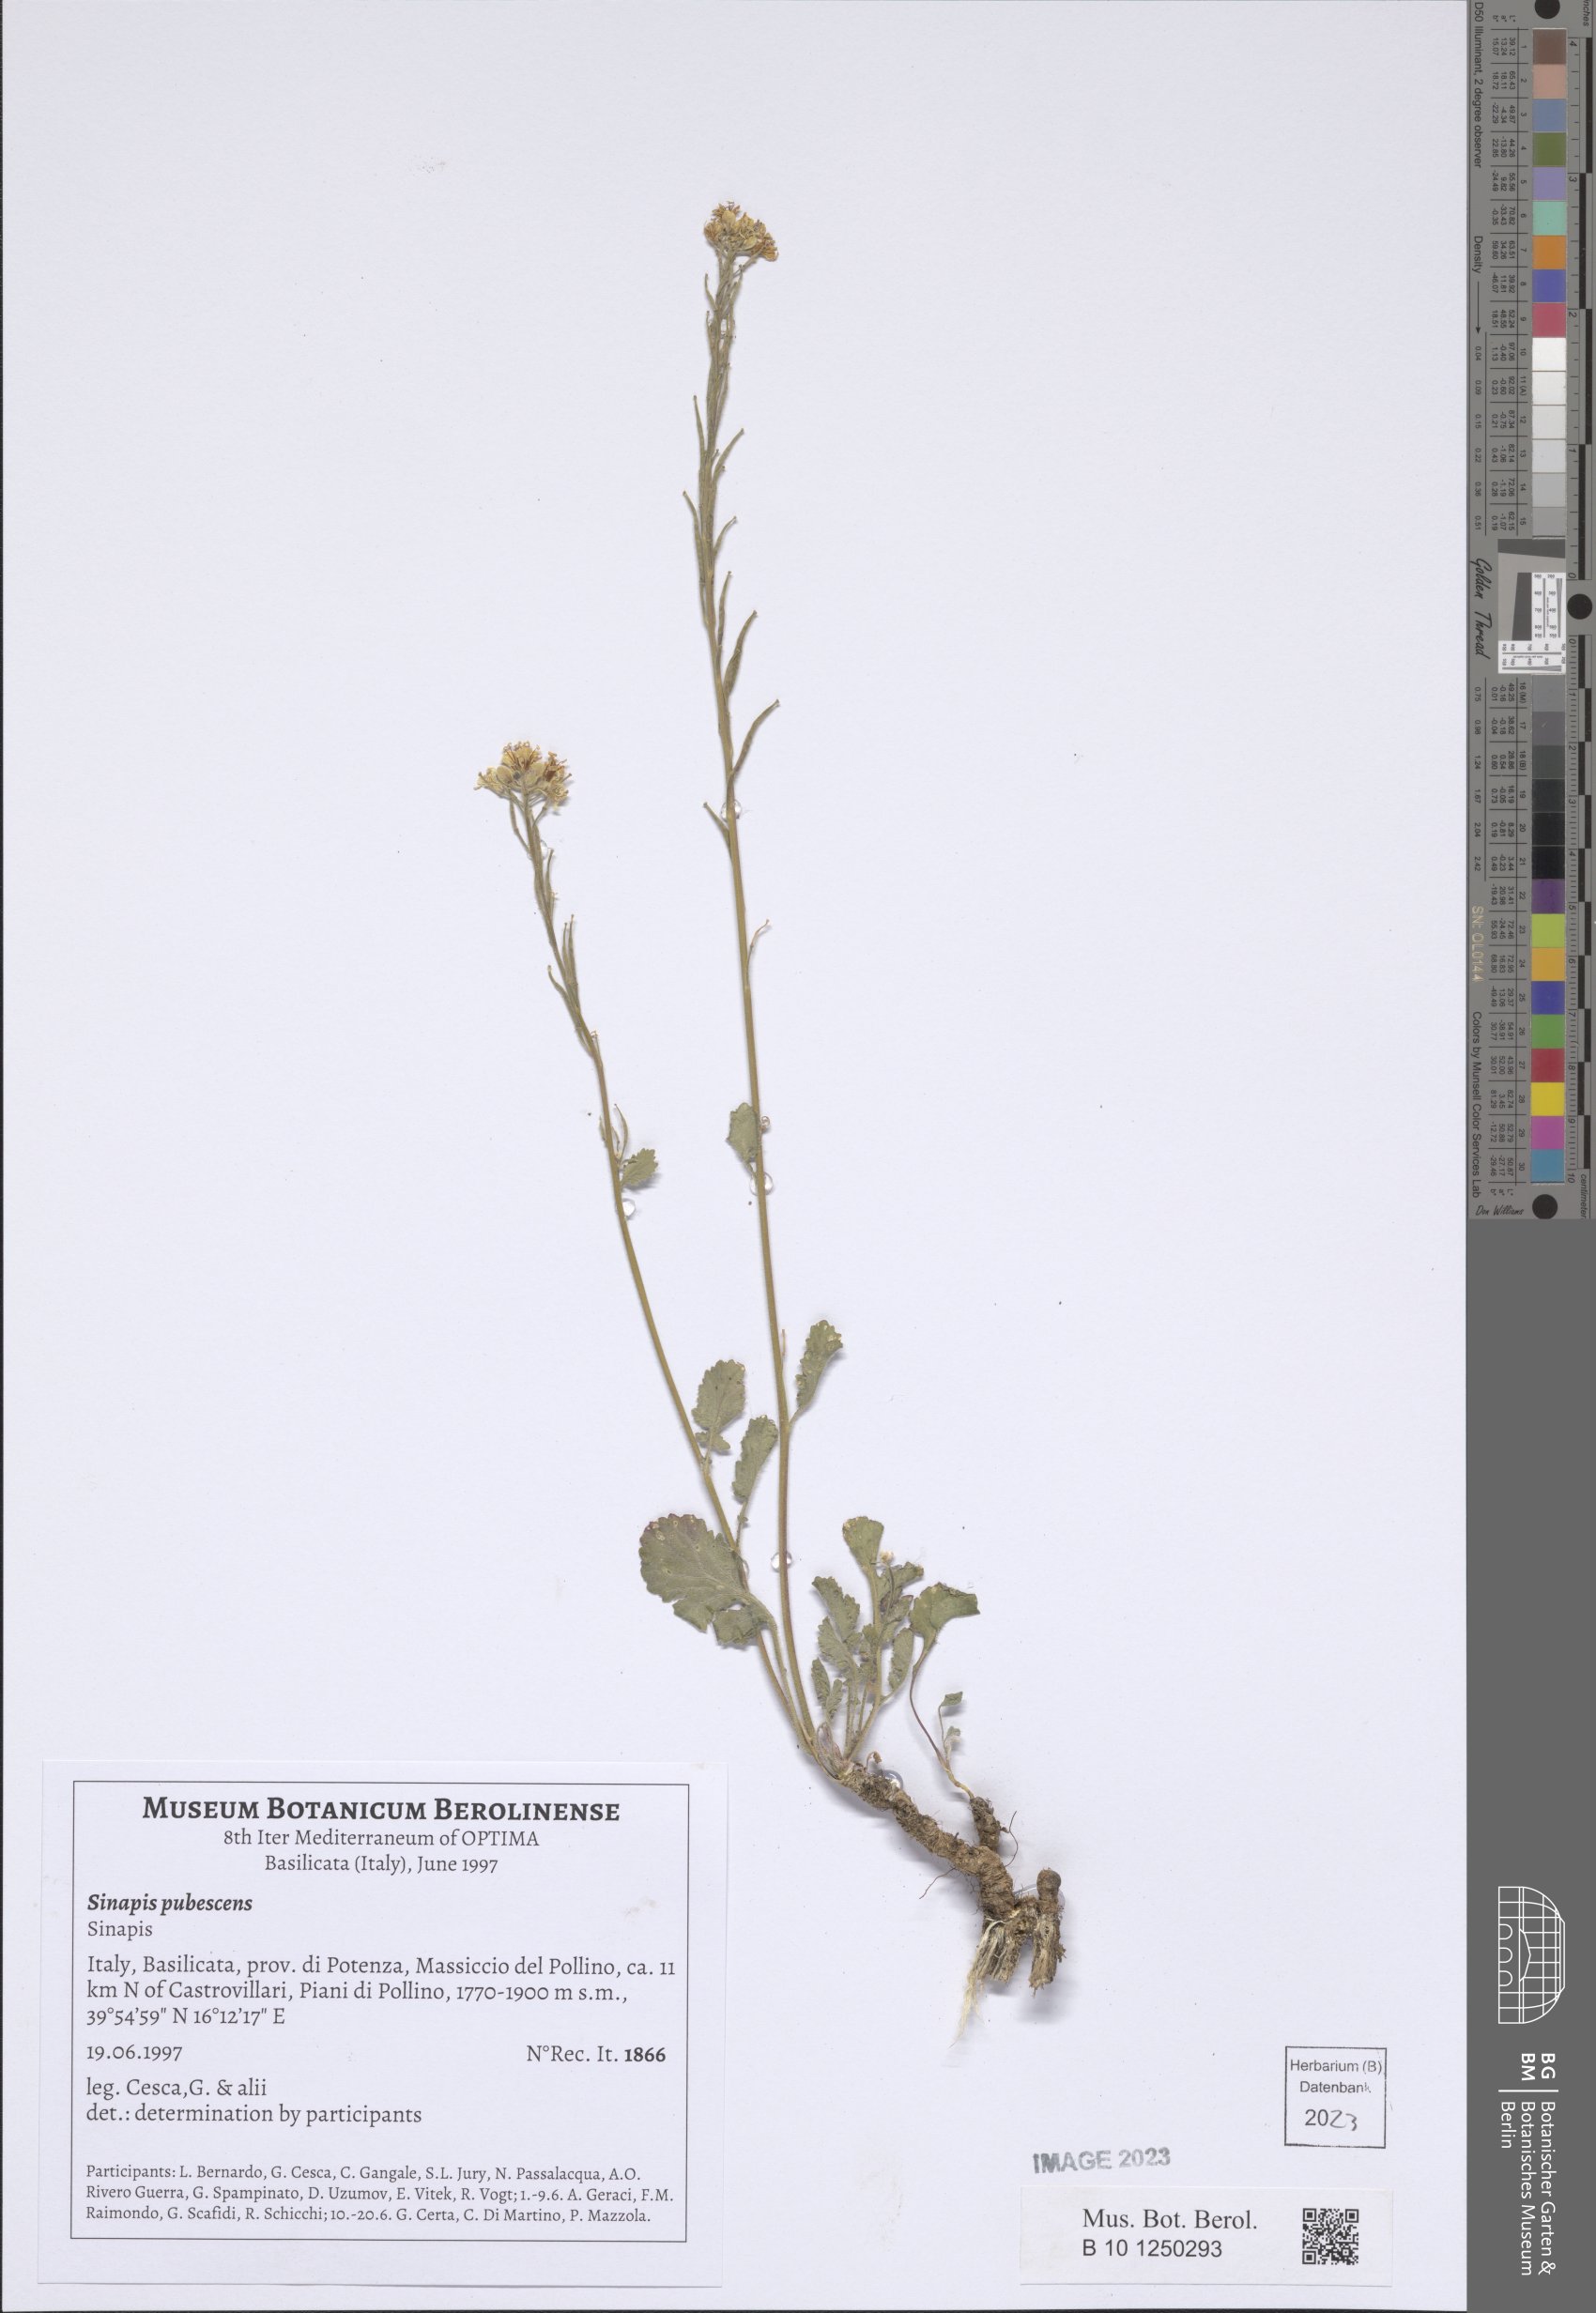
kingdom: Plantae
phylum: Tracheophyta
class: Magnoliopsida
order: Brassicales
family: Brassicaceae
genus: Sinapis
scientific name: Sinapis pubescens
